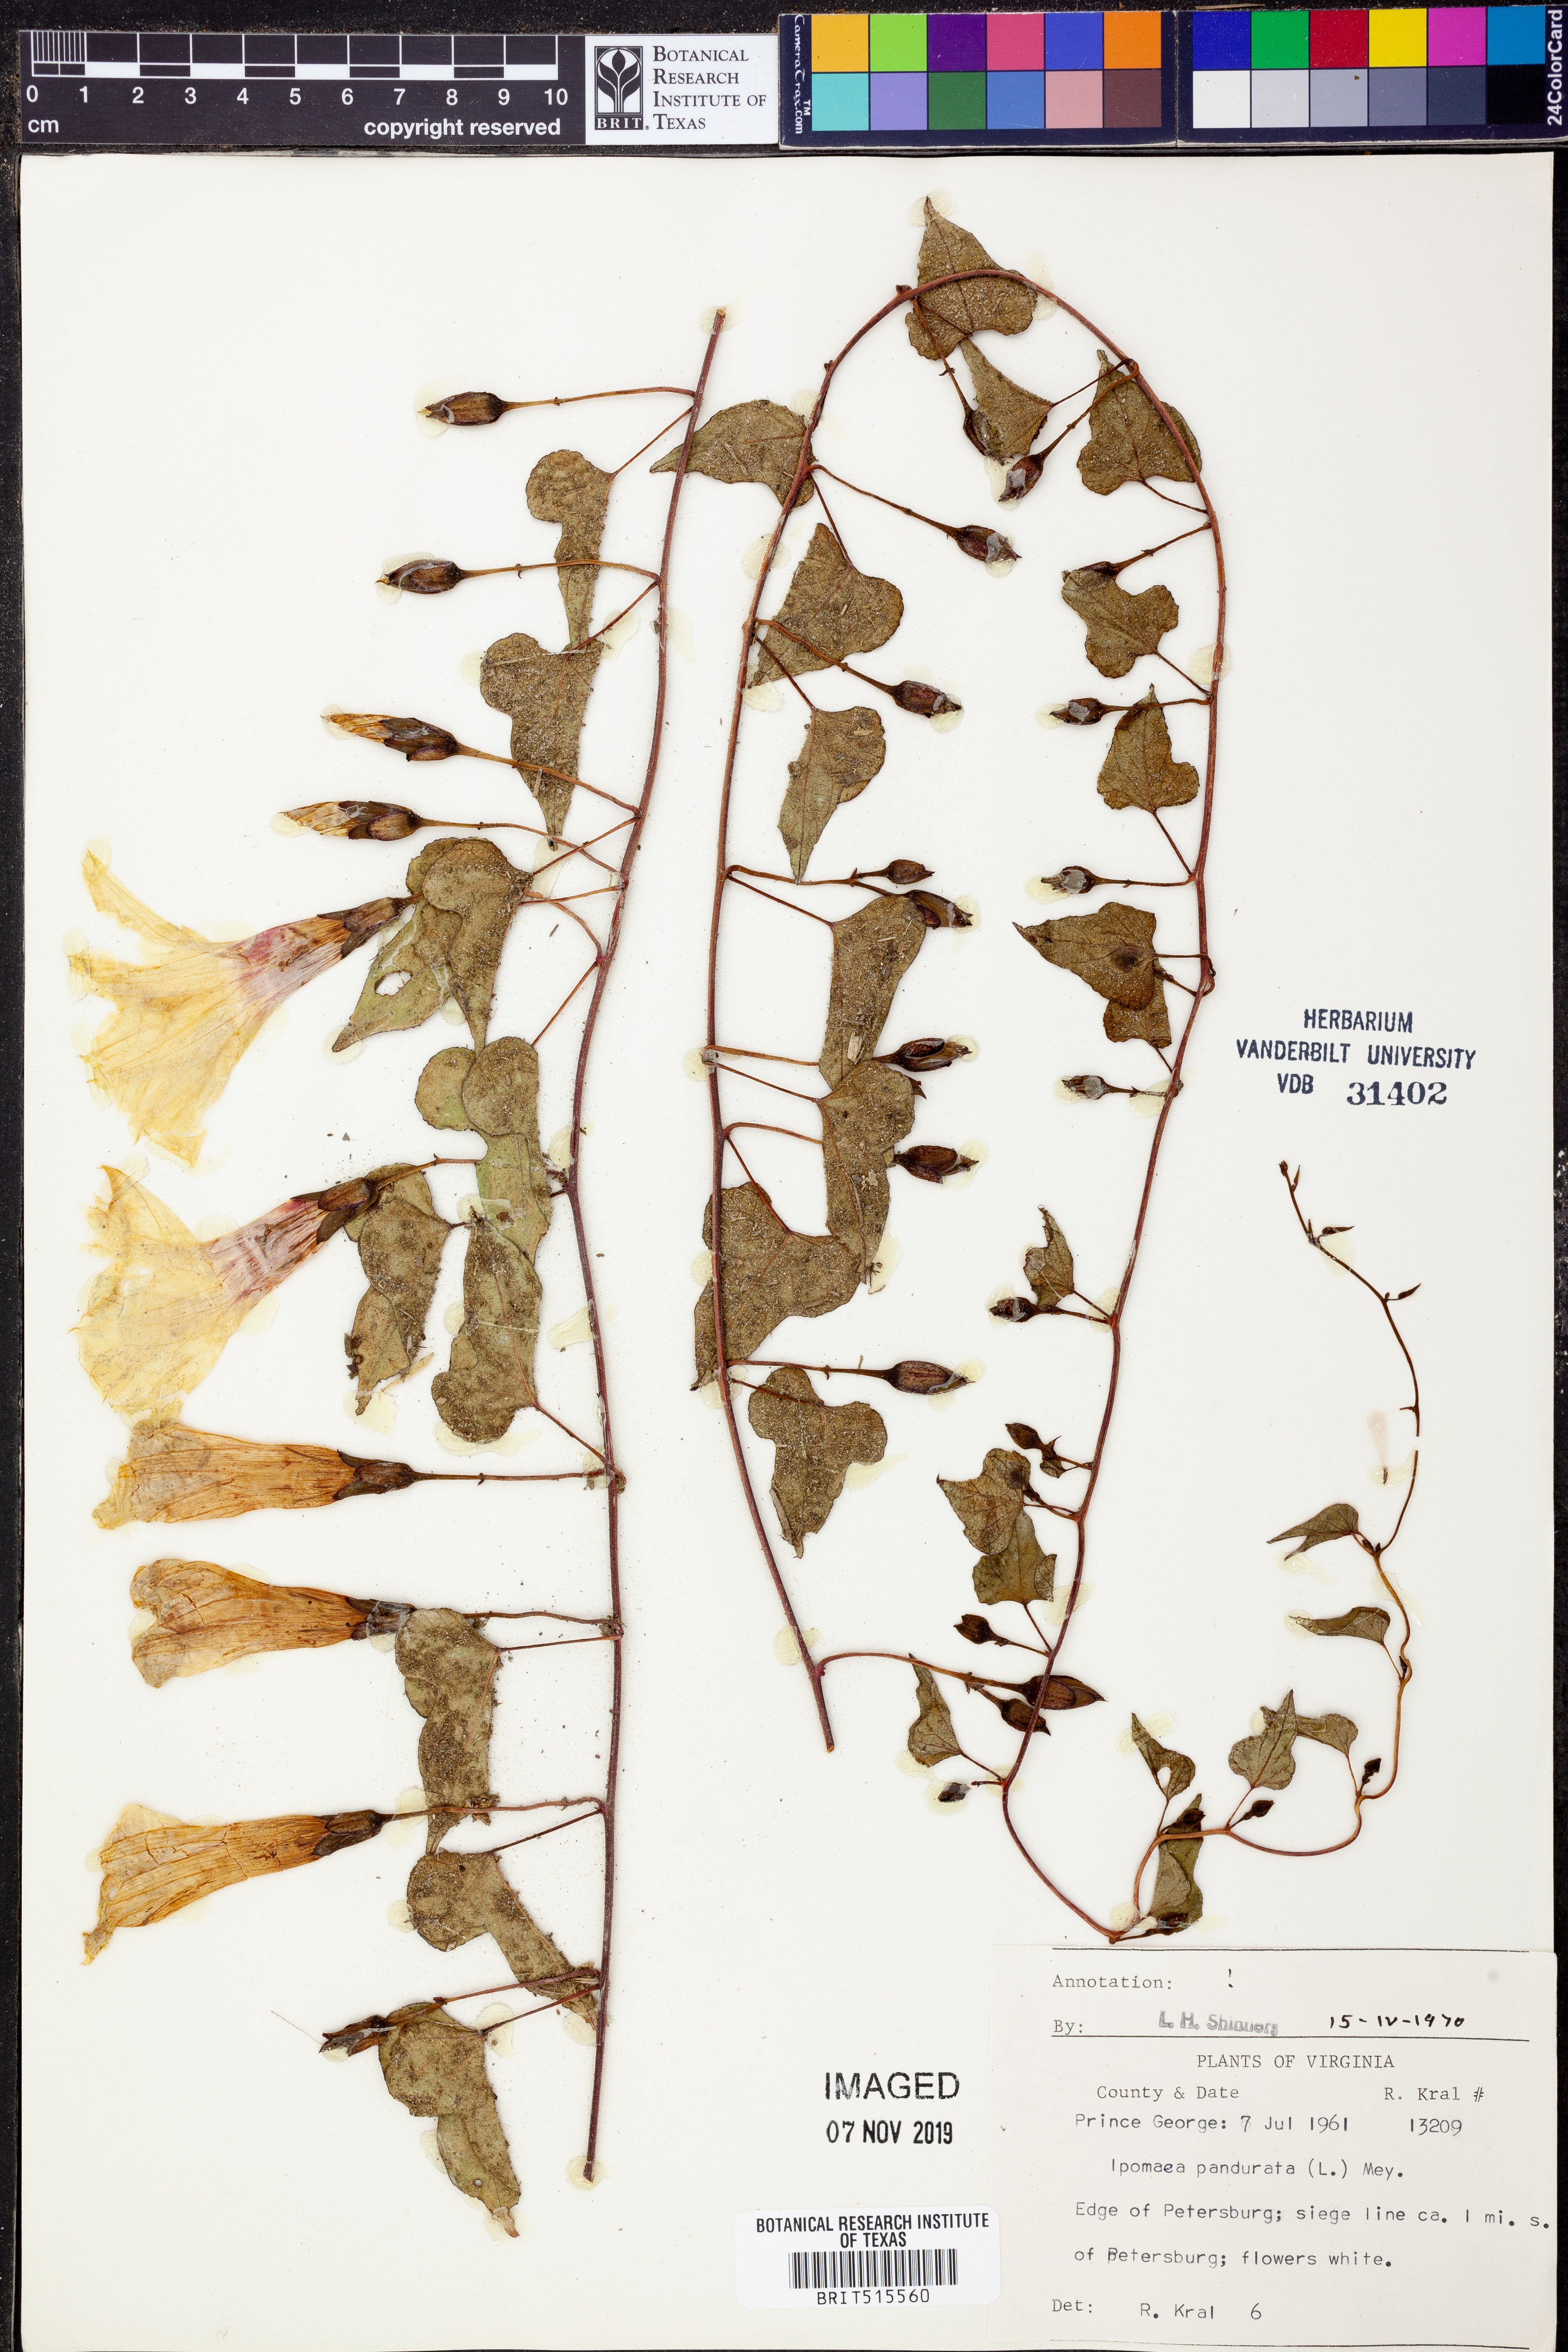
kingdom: Plantae
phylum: Tracheophyta
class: Magnoliopsida
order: Solanales
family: Convolvulaceae
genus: Ipomoea
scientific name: Ipomoea pandurata
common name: Man-of-the-earth
